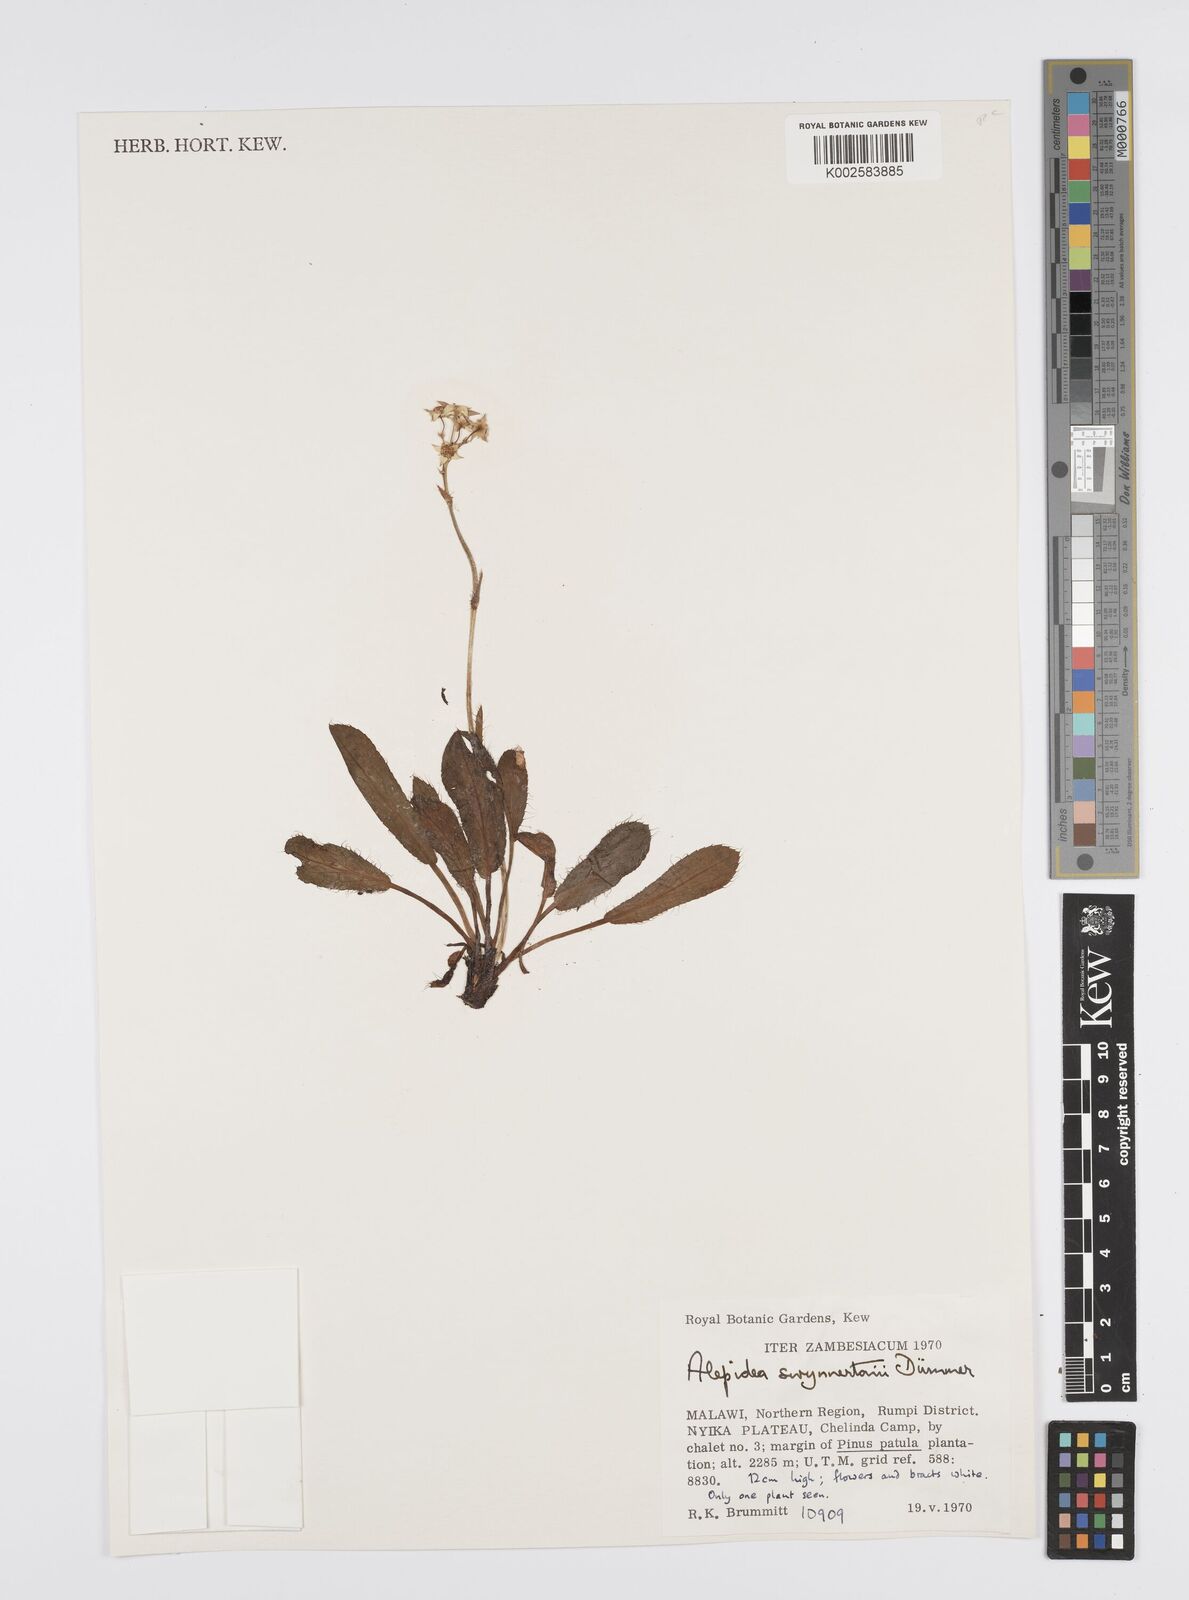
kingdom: Plantae
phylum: Tracheophyta
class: Magnoliopsida
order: Apiales
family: Apiaceae
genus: Alepidea
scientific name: Alepidea peduncularis
